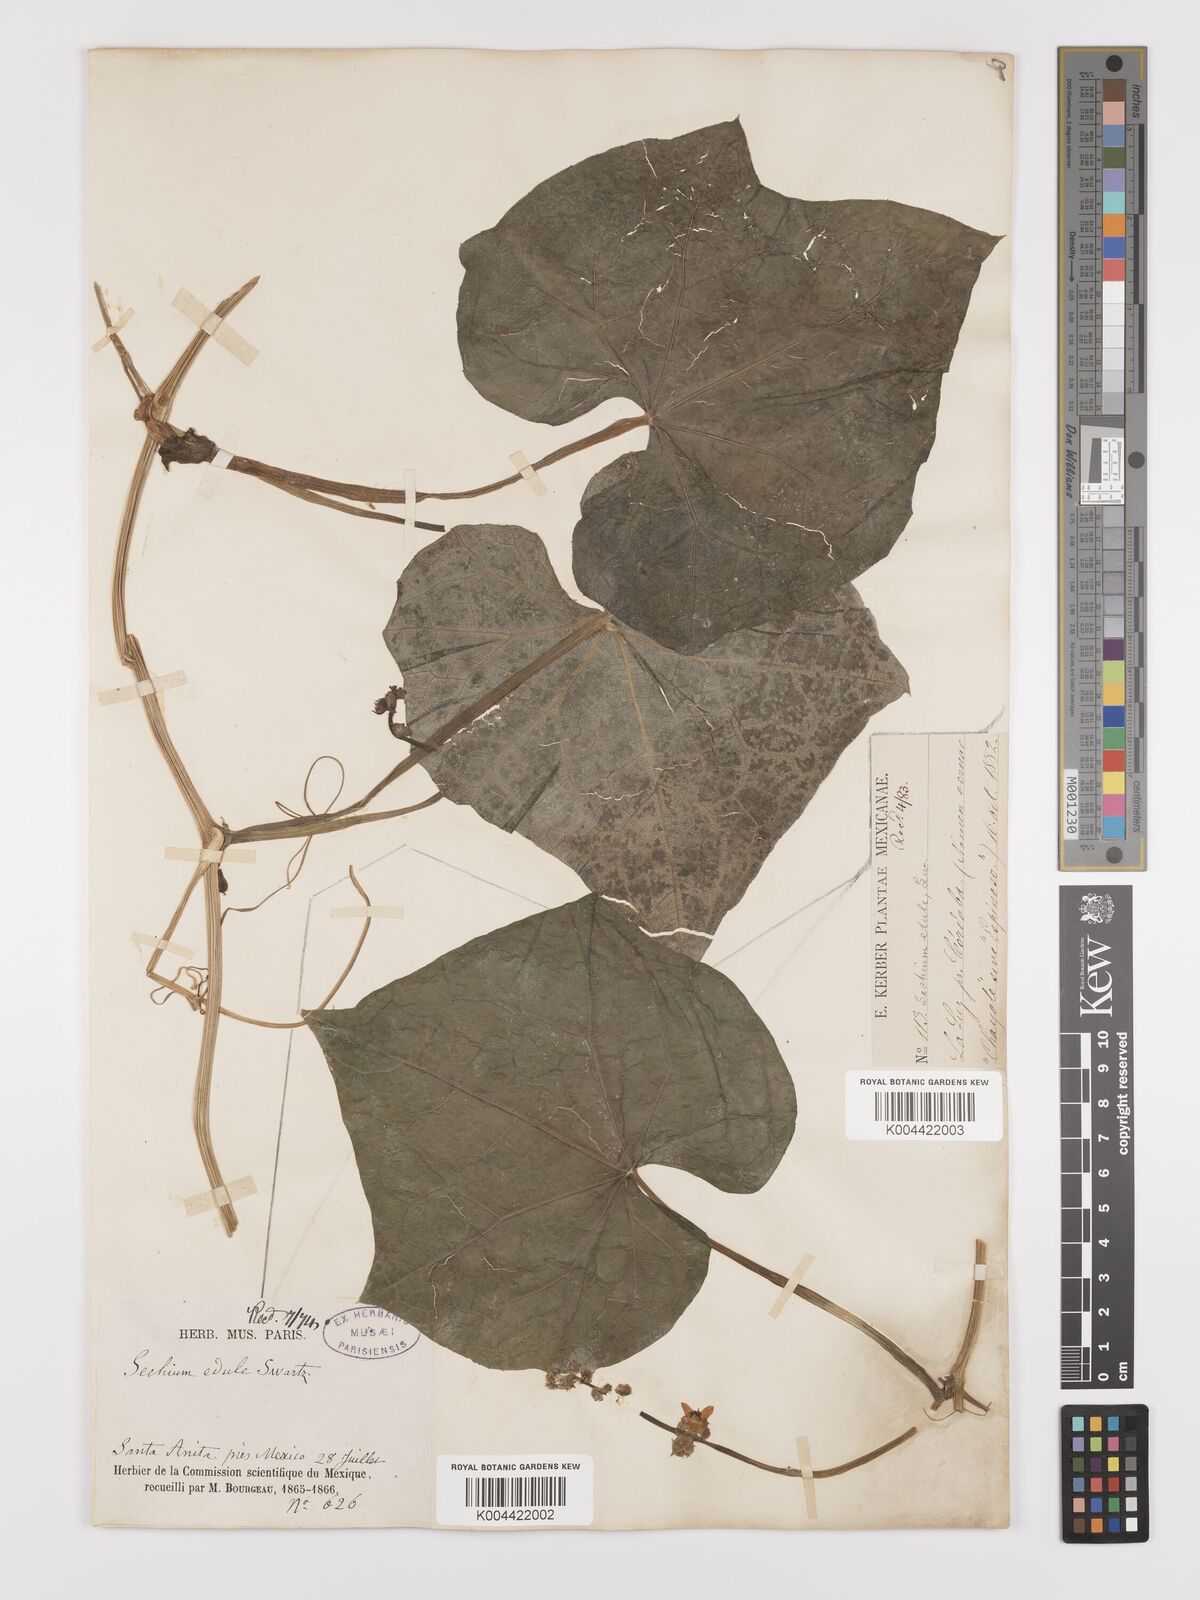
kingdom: Plantae
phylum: Tracheophyta
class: Magnoliopsida
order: Cucurbitales
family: Cucurbitaceae
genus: Sechium
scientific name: Sechium edule
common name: Chayote
